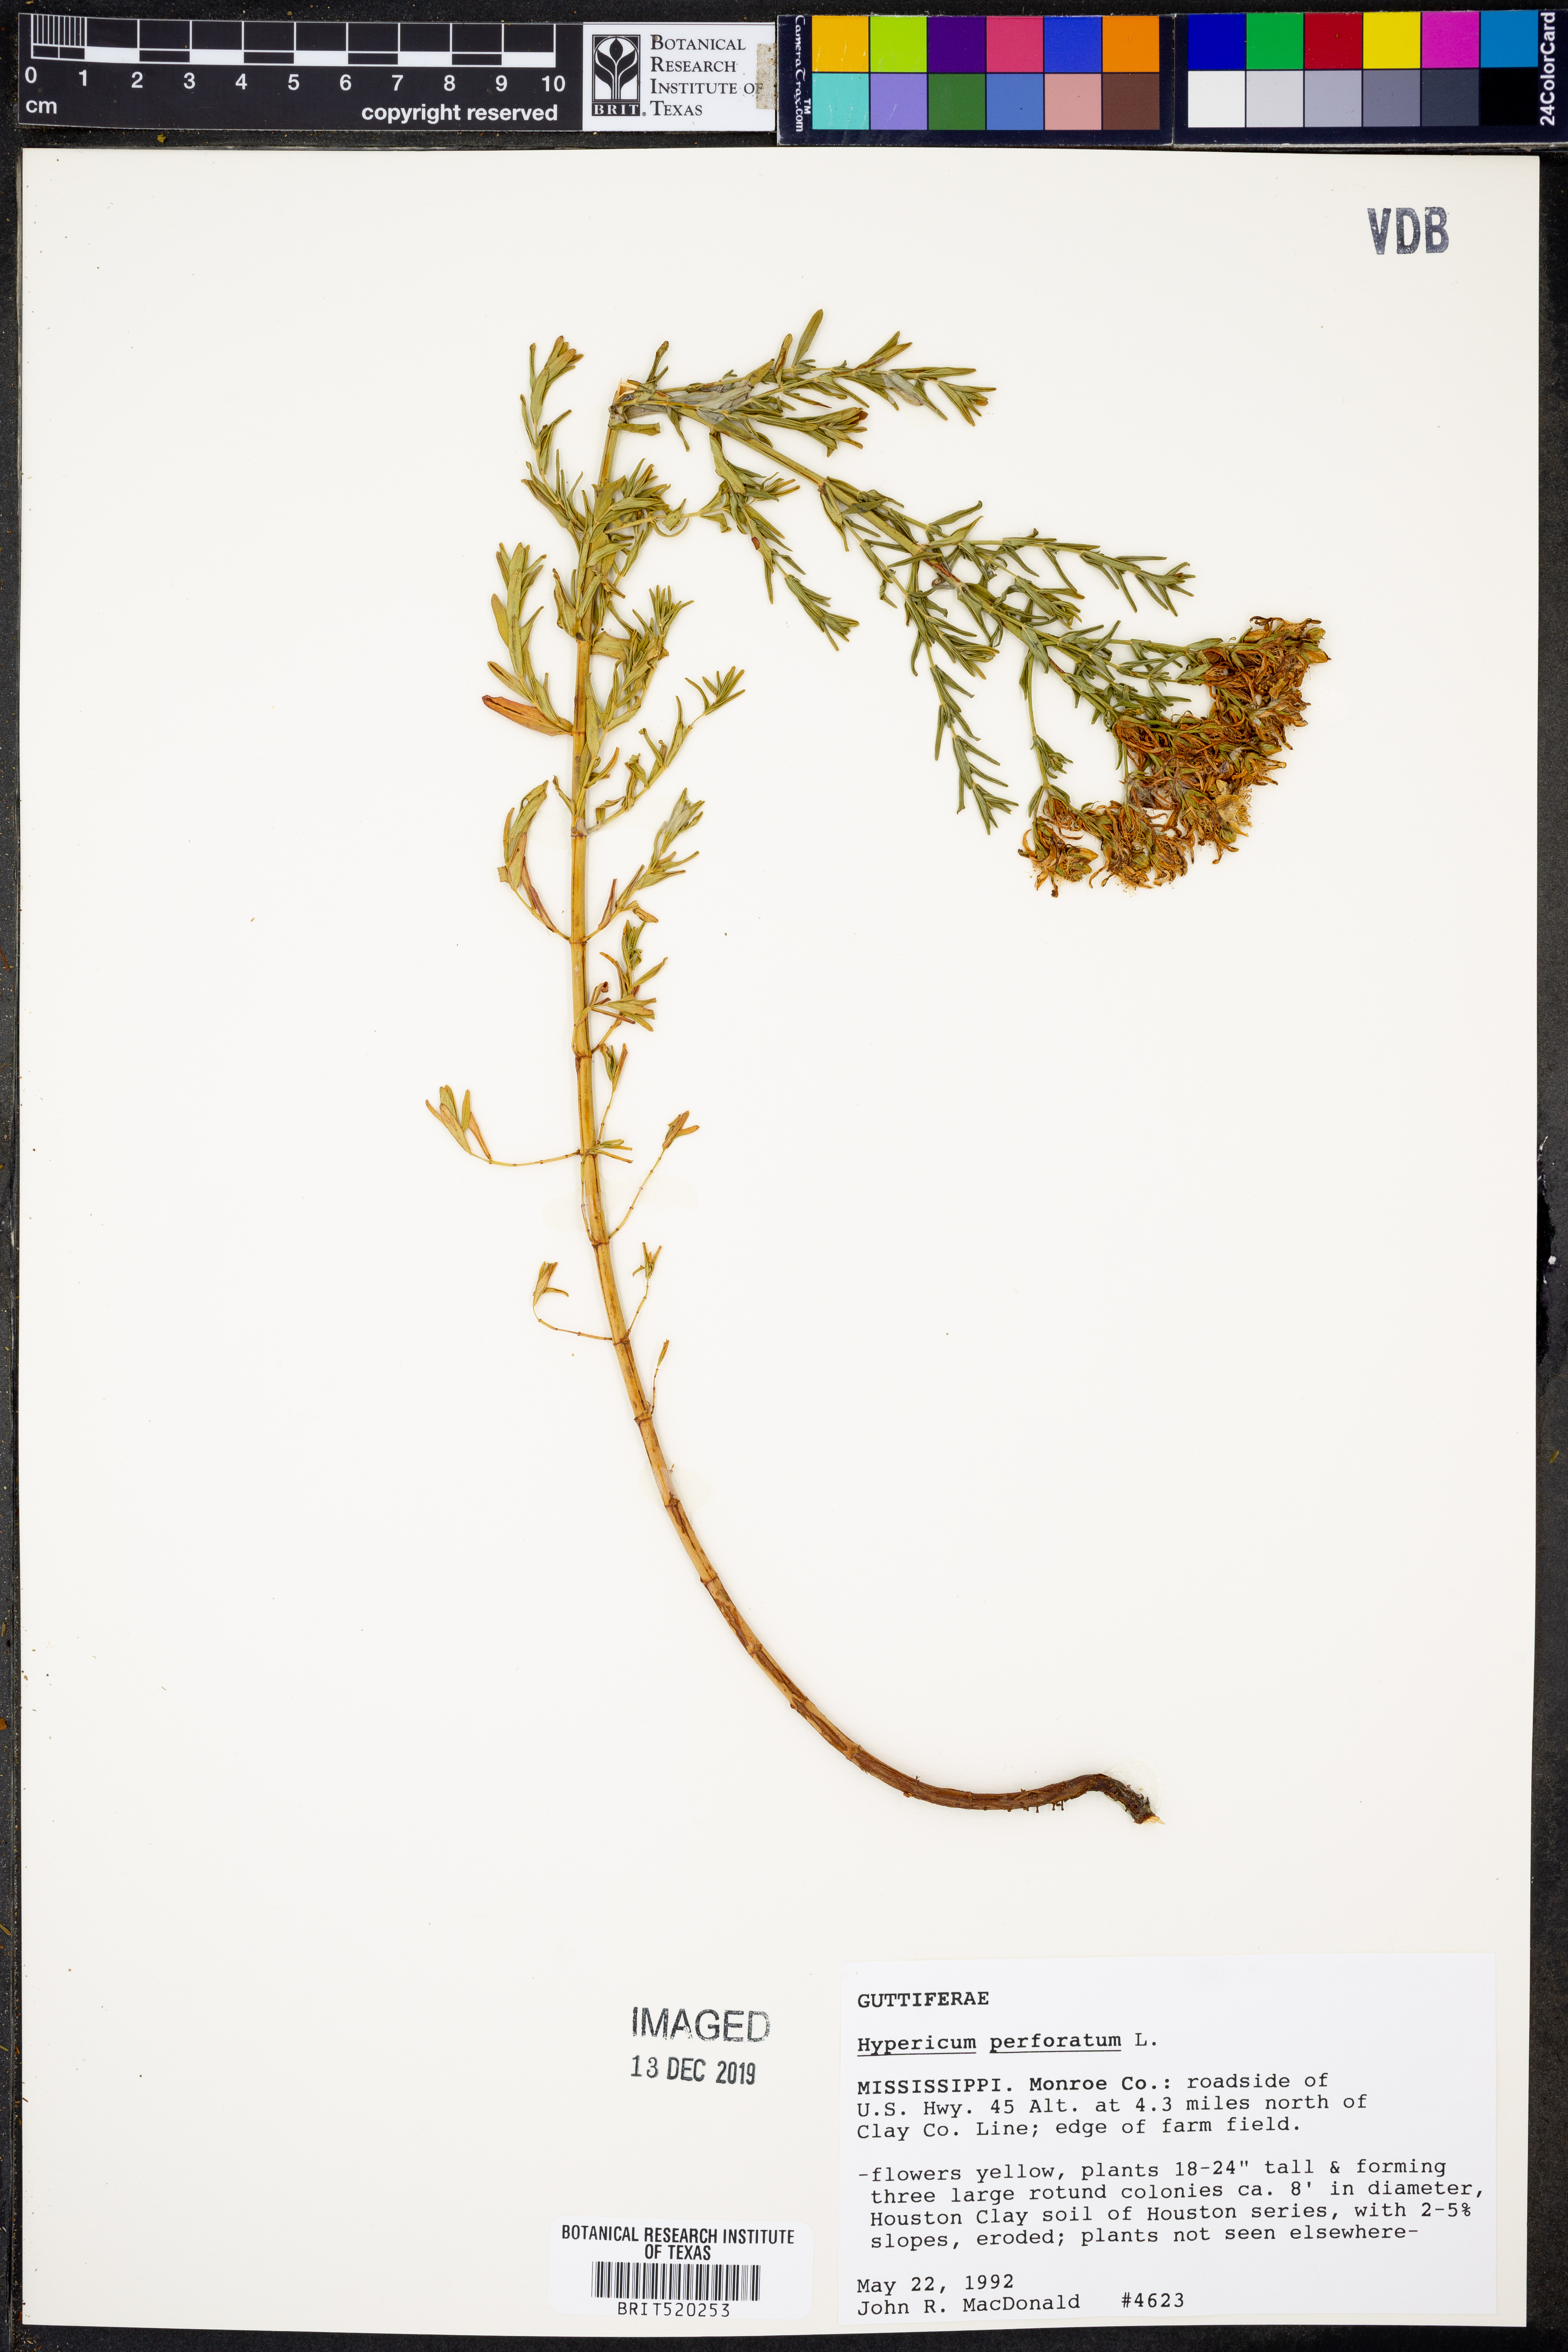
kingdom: Plantae
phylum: Tracheophyta
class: Magnoliopsida
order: Malpighiales
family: Hypericaceae
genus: Hypericum
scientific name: Hypericum perforatum
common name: Common st. johnswort
